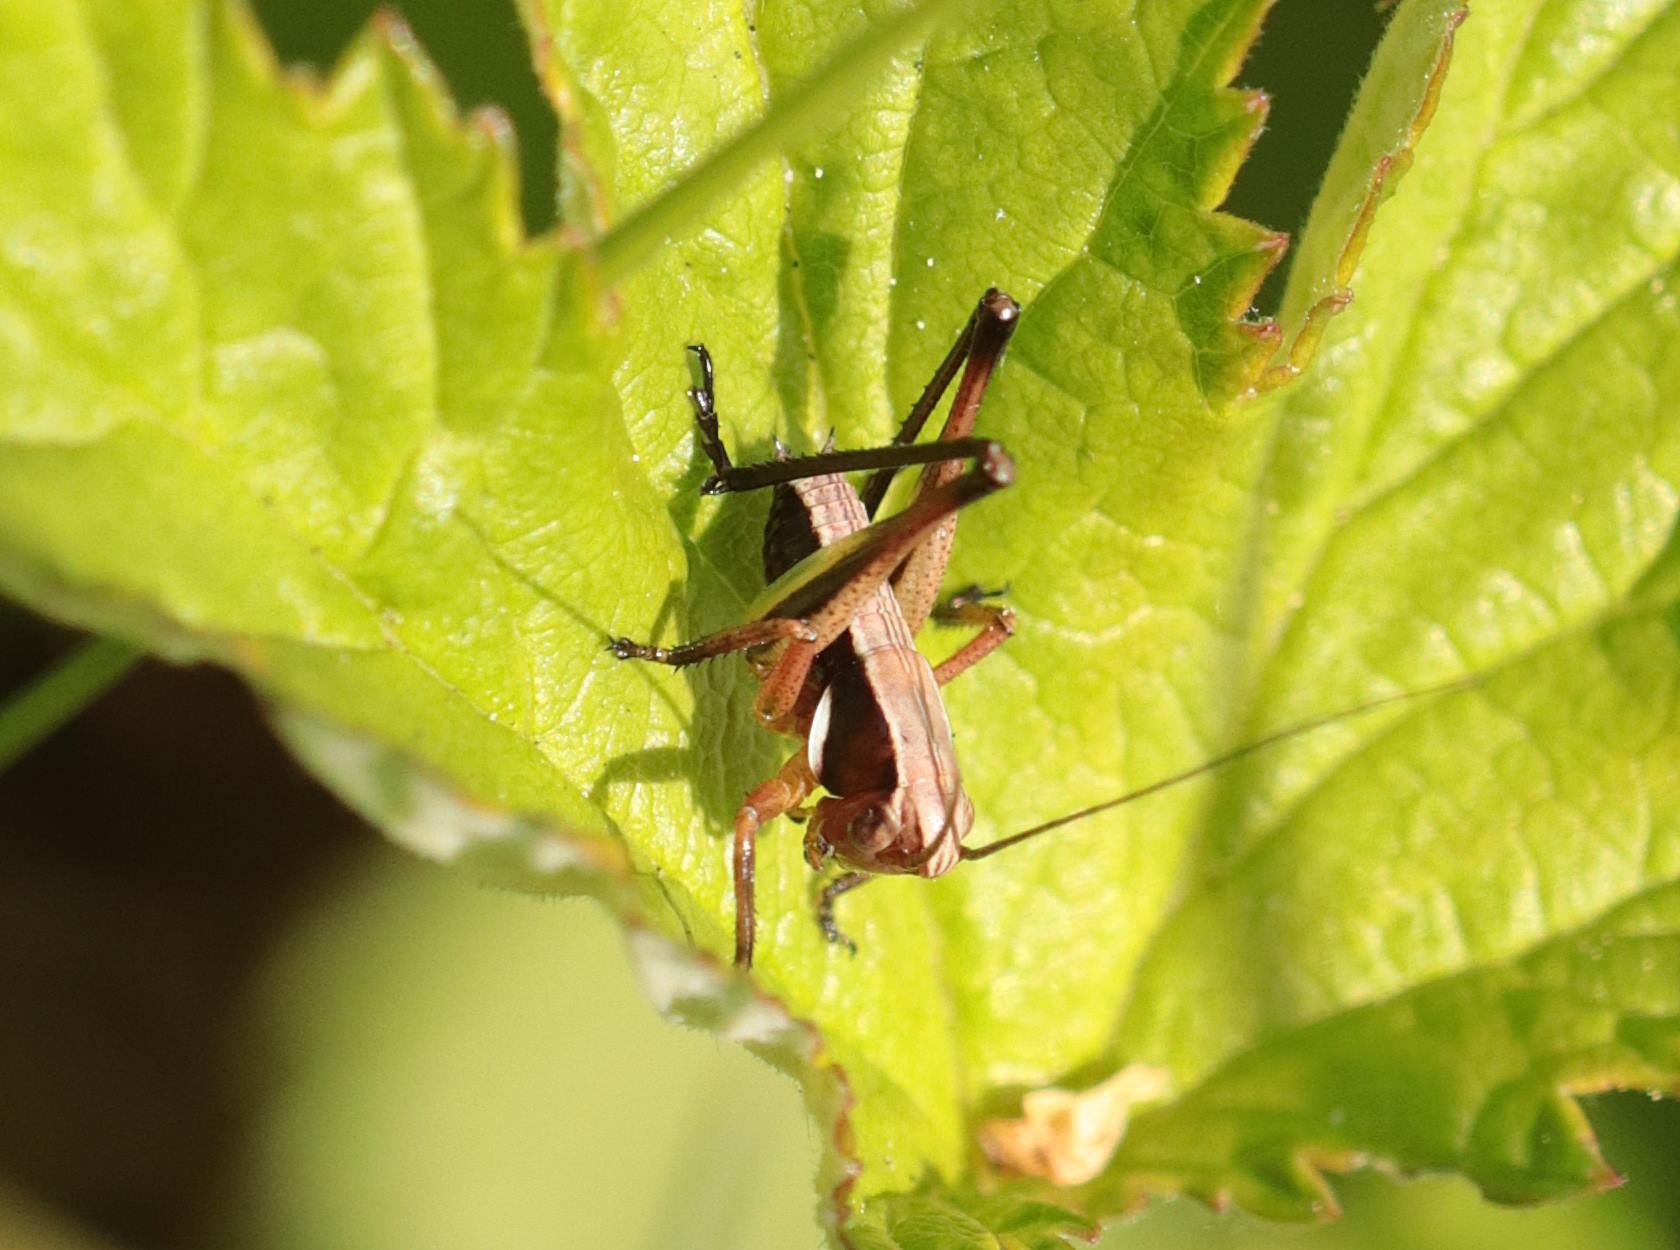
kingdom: Animalia
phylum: Arthropoda
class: Insecta
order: Orthoptera
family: Tettigoniidae
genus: Pholidoptera
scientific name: Pholidoptera griseoaptera
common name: Buskgræshoppe
